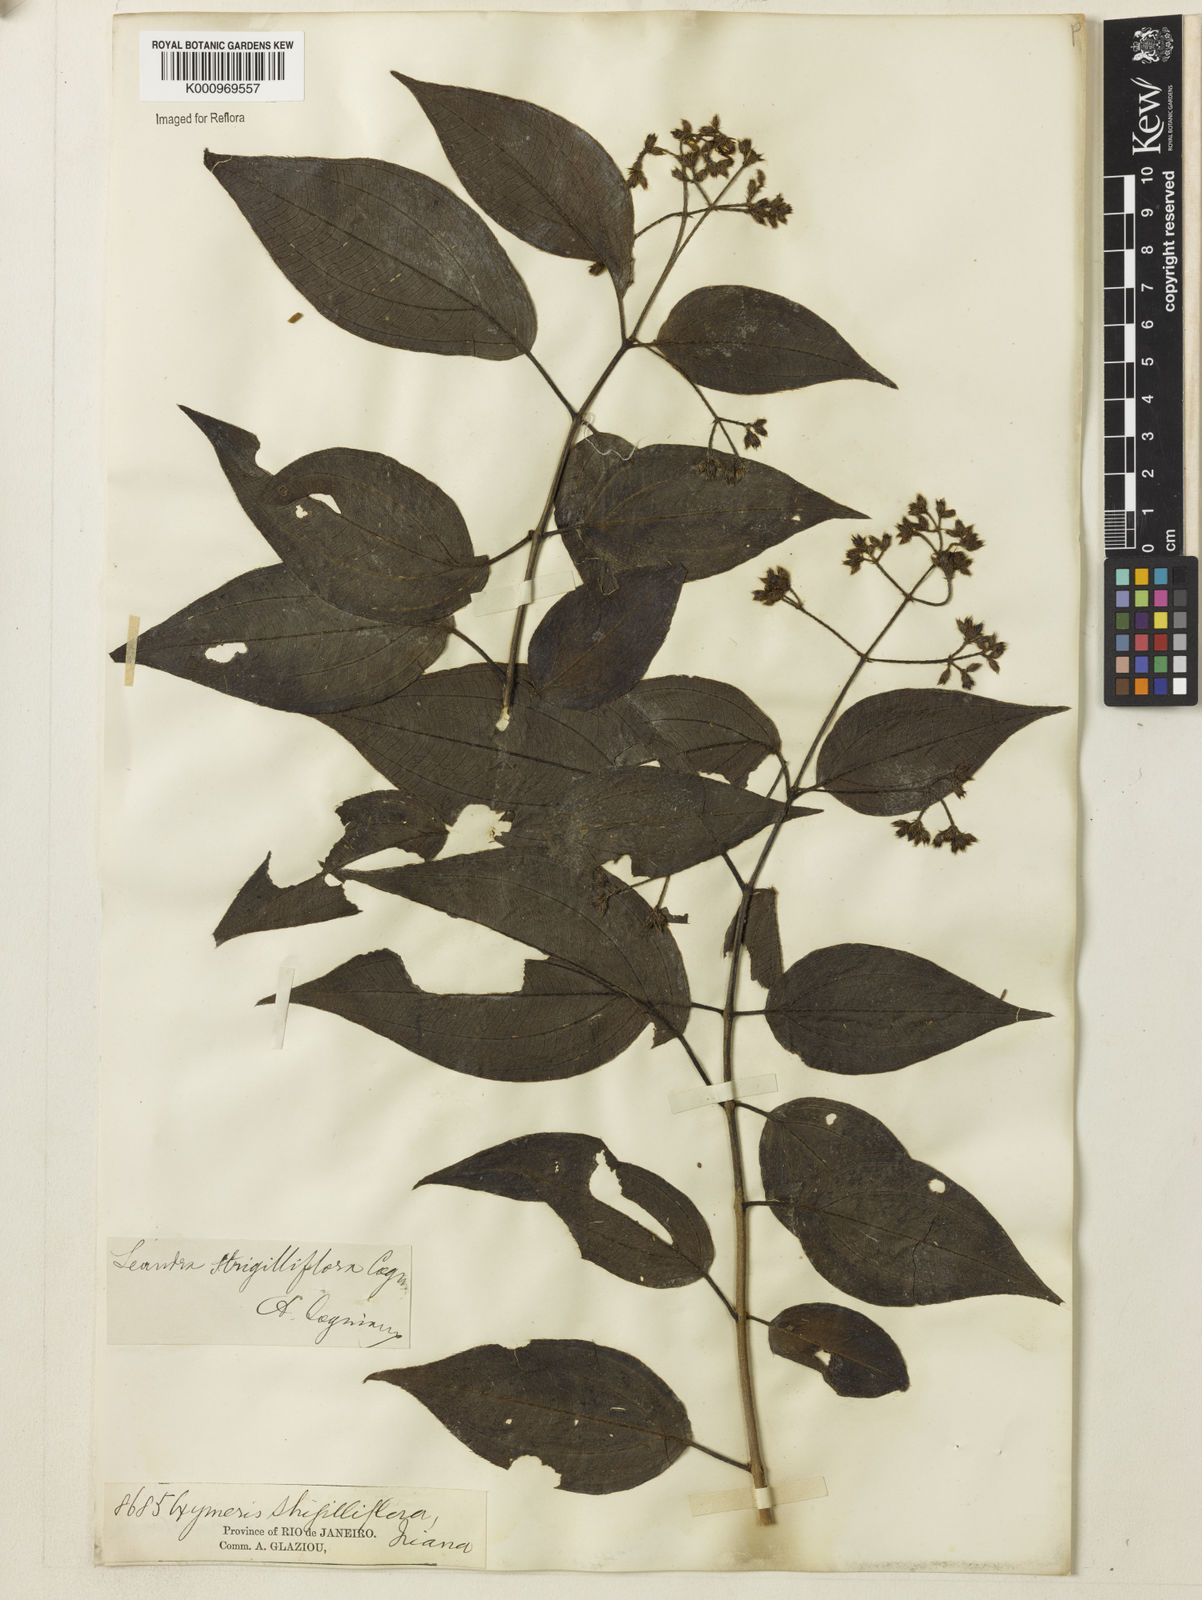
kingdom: Plantae
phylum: Tracheophyta
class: Magnoliopsida
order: Myrtales
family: Melastomataceae
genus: Miconia
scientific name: Miconia strigilliflora
